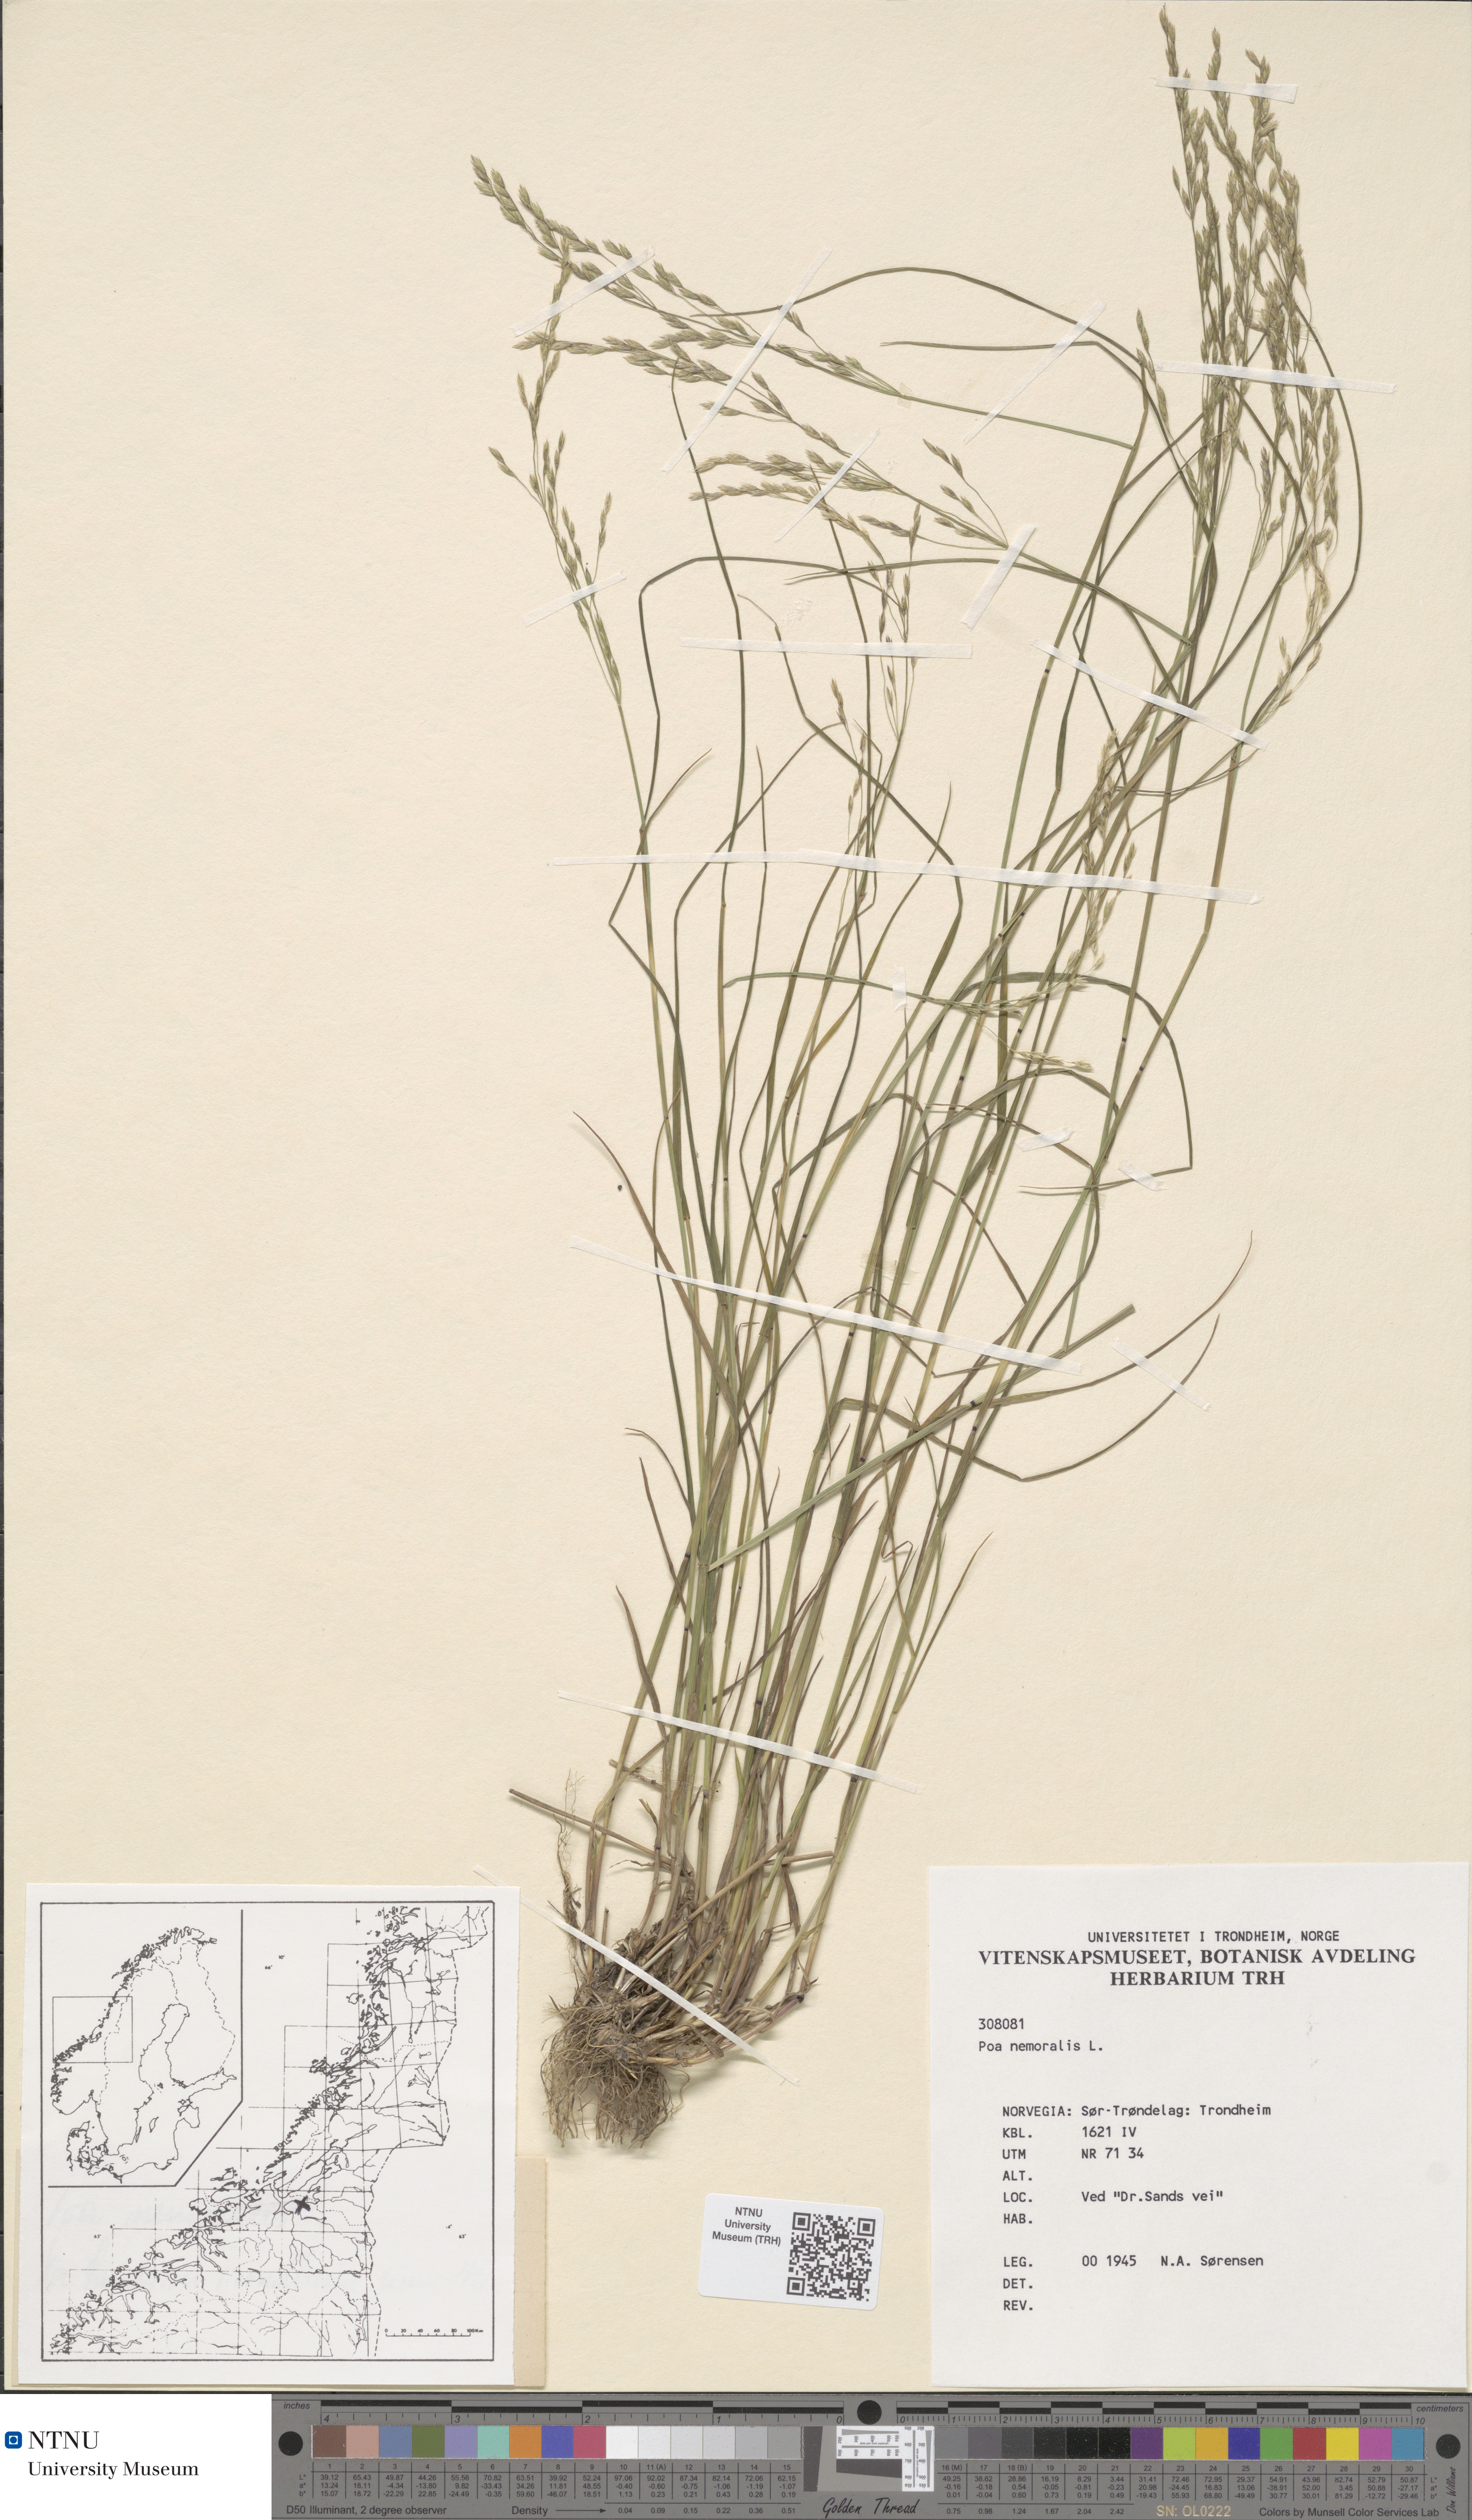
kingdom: Plantae
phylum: Tracheophyta
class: Liliopsida
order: Poales
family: Poaceae
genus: Poa
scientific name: Poa nemoralis
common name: Wood bluegrass
